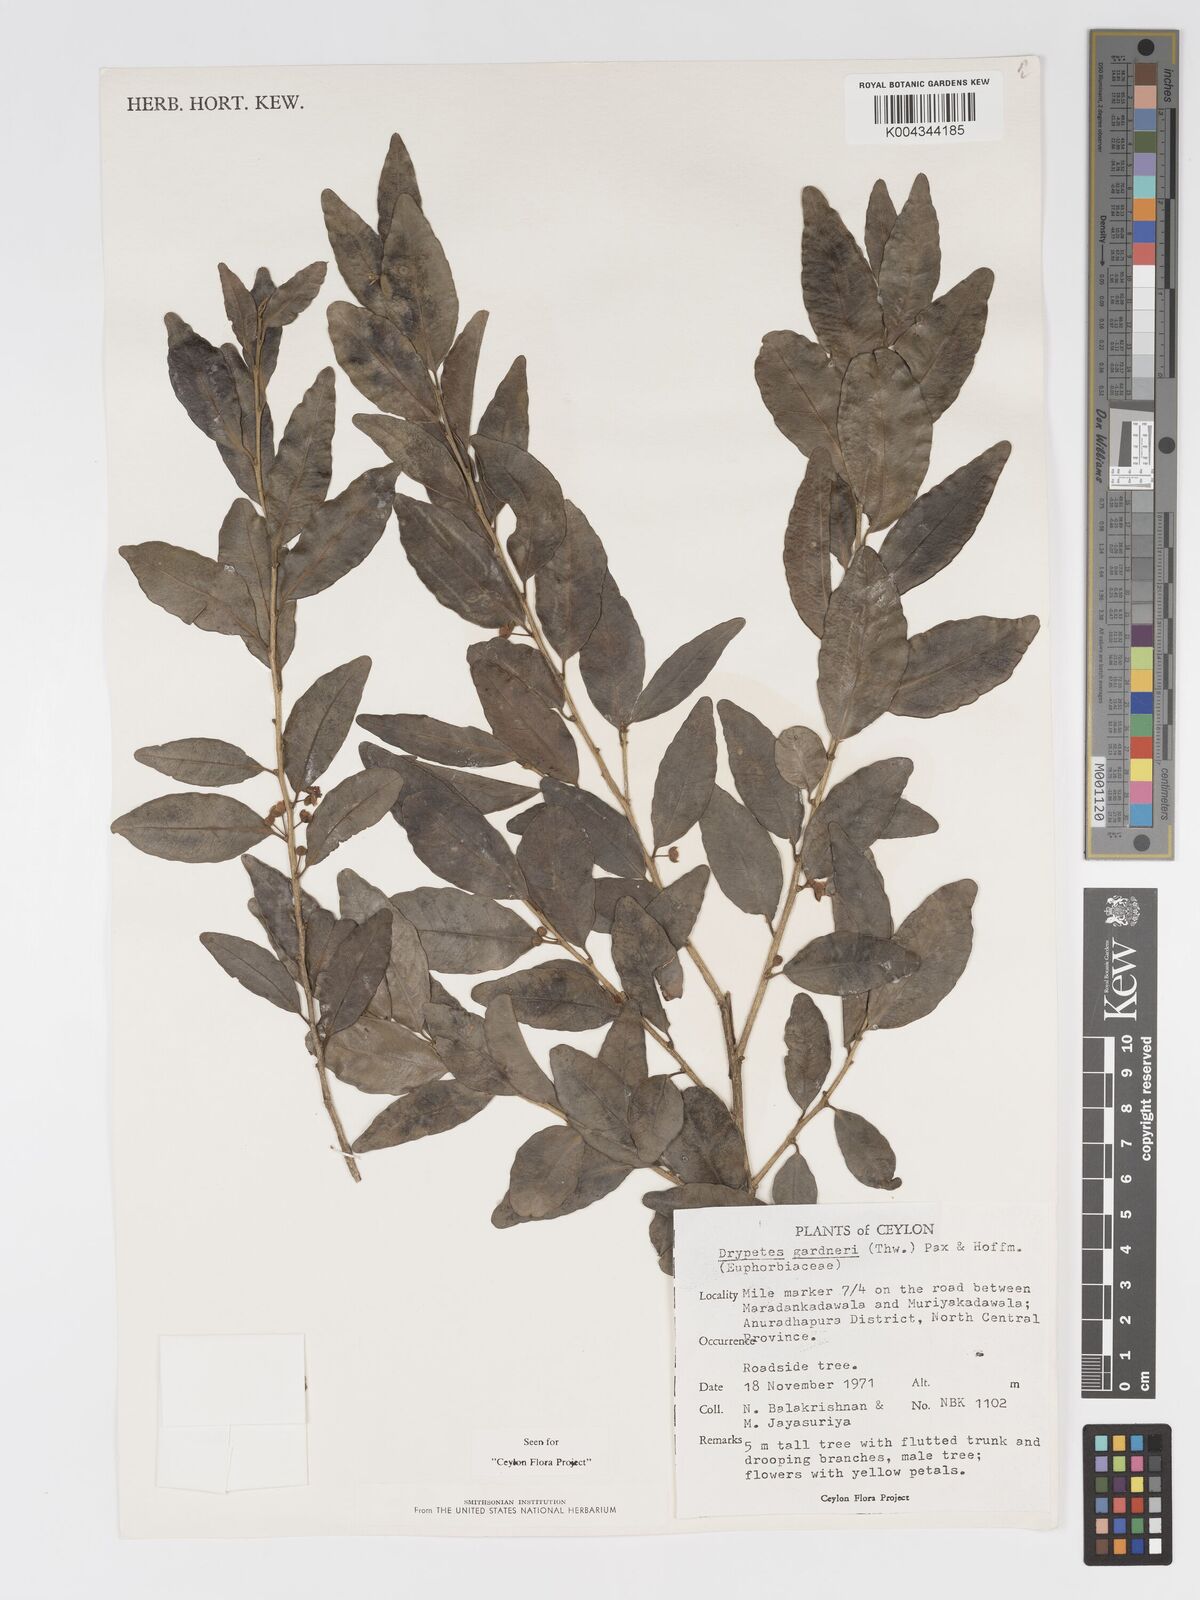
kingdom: Plantae
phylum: Tracheophyta
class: Magnoliopsida
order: Malpighiales
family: Putranjivaceae
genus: Drypetes
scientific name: Drypetes gardneri
